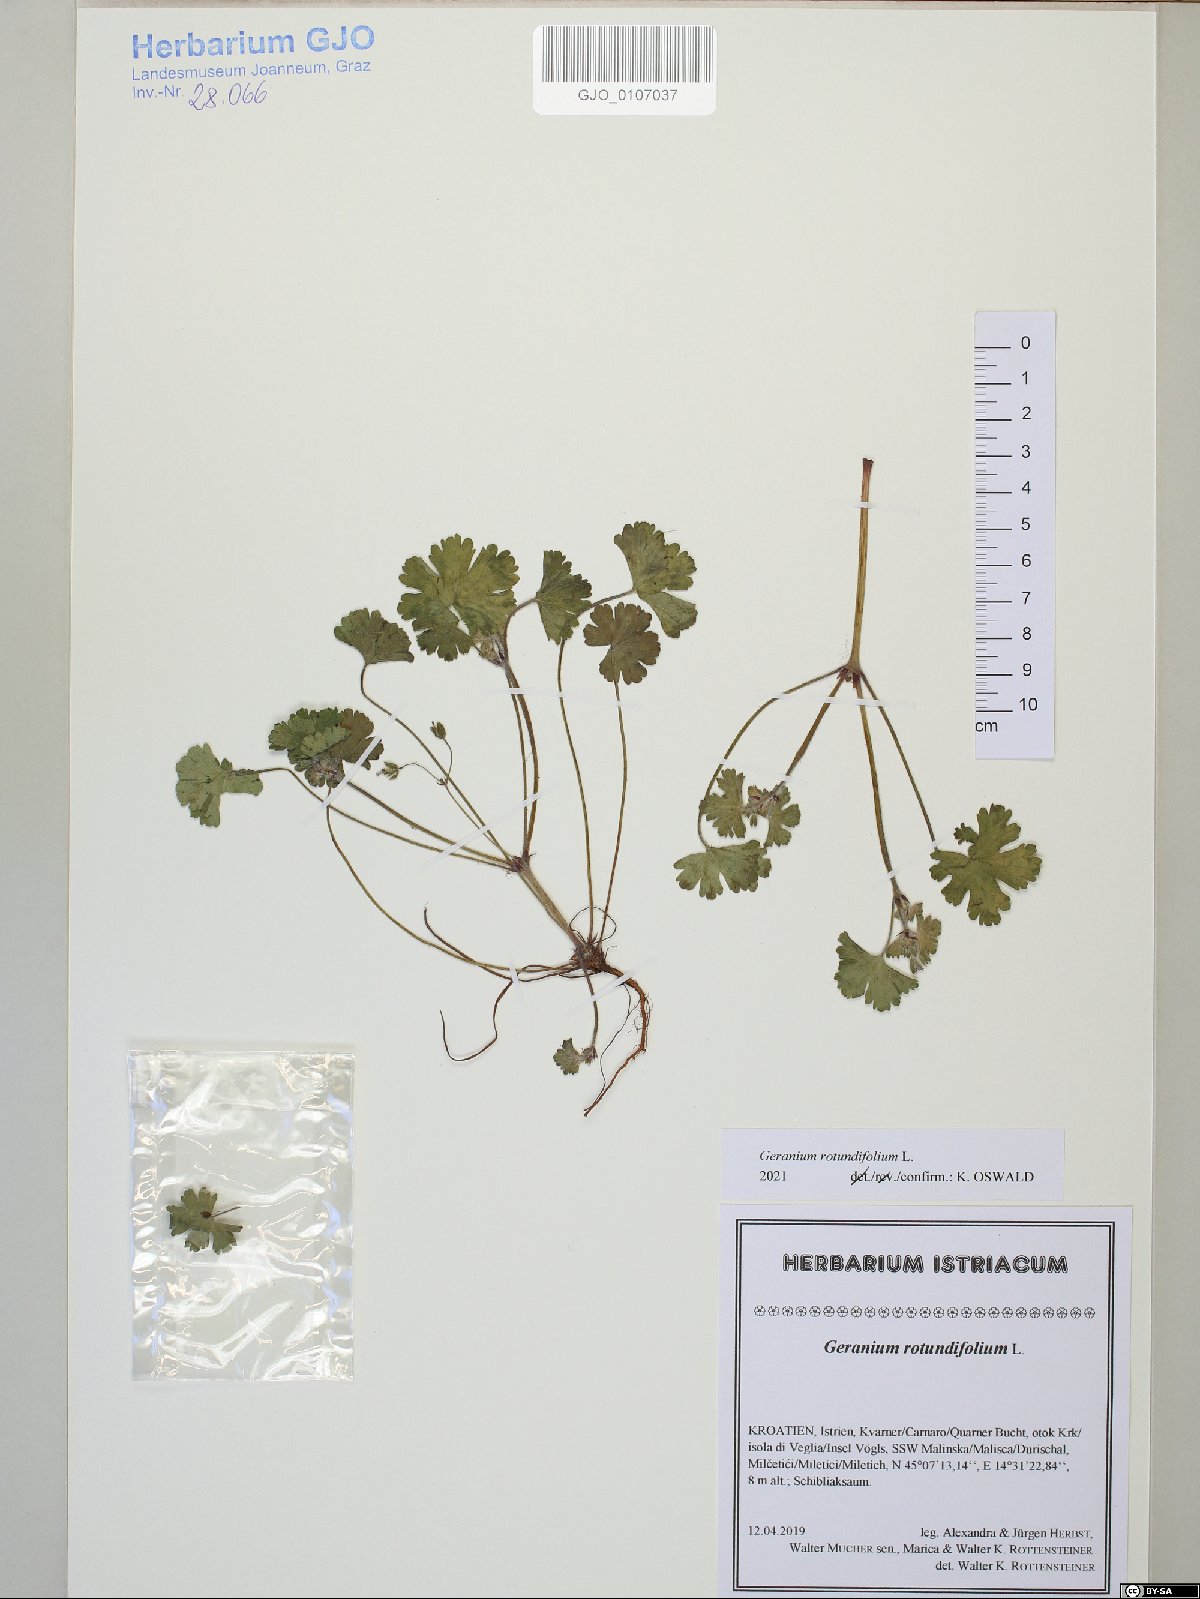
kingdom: Plantae
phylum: Tracheophyta
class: Magnoliopsida
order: Geraniales
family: Geraniaceae
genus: Geranium
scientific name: Geranium rotundifolium
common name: Round-leaved crane's-bill
